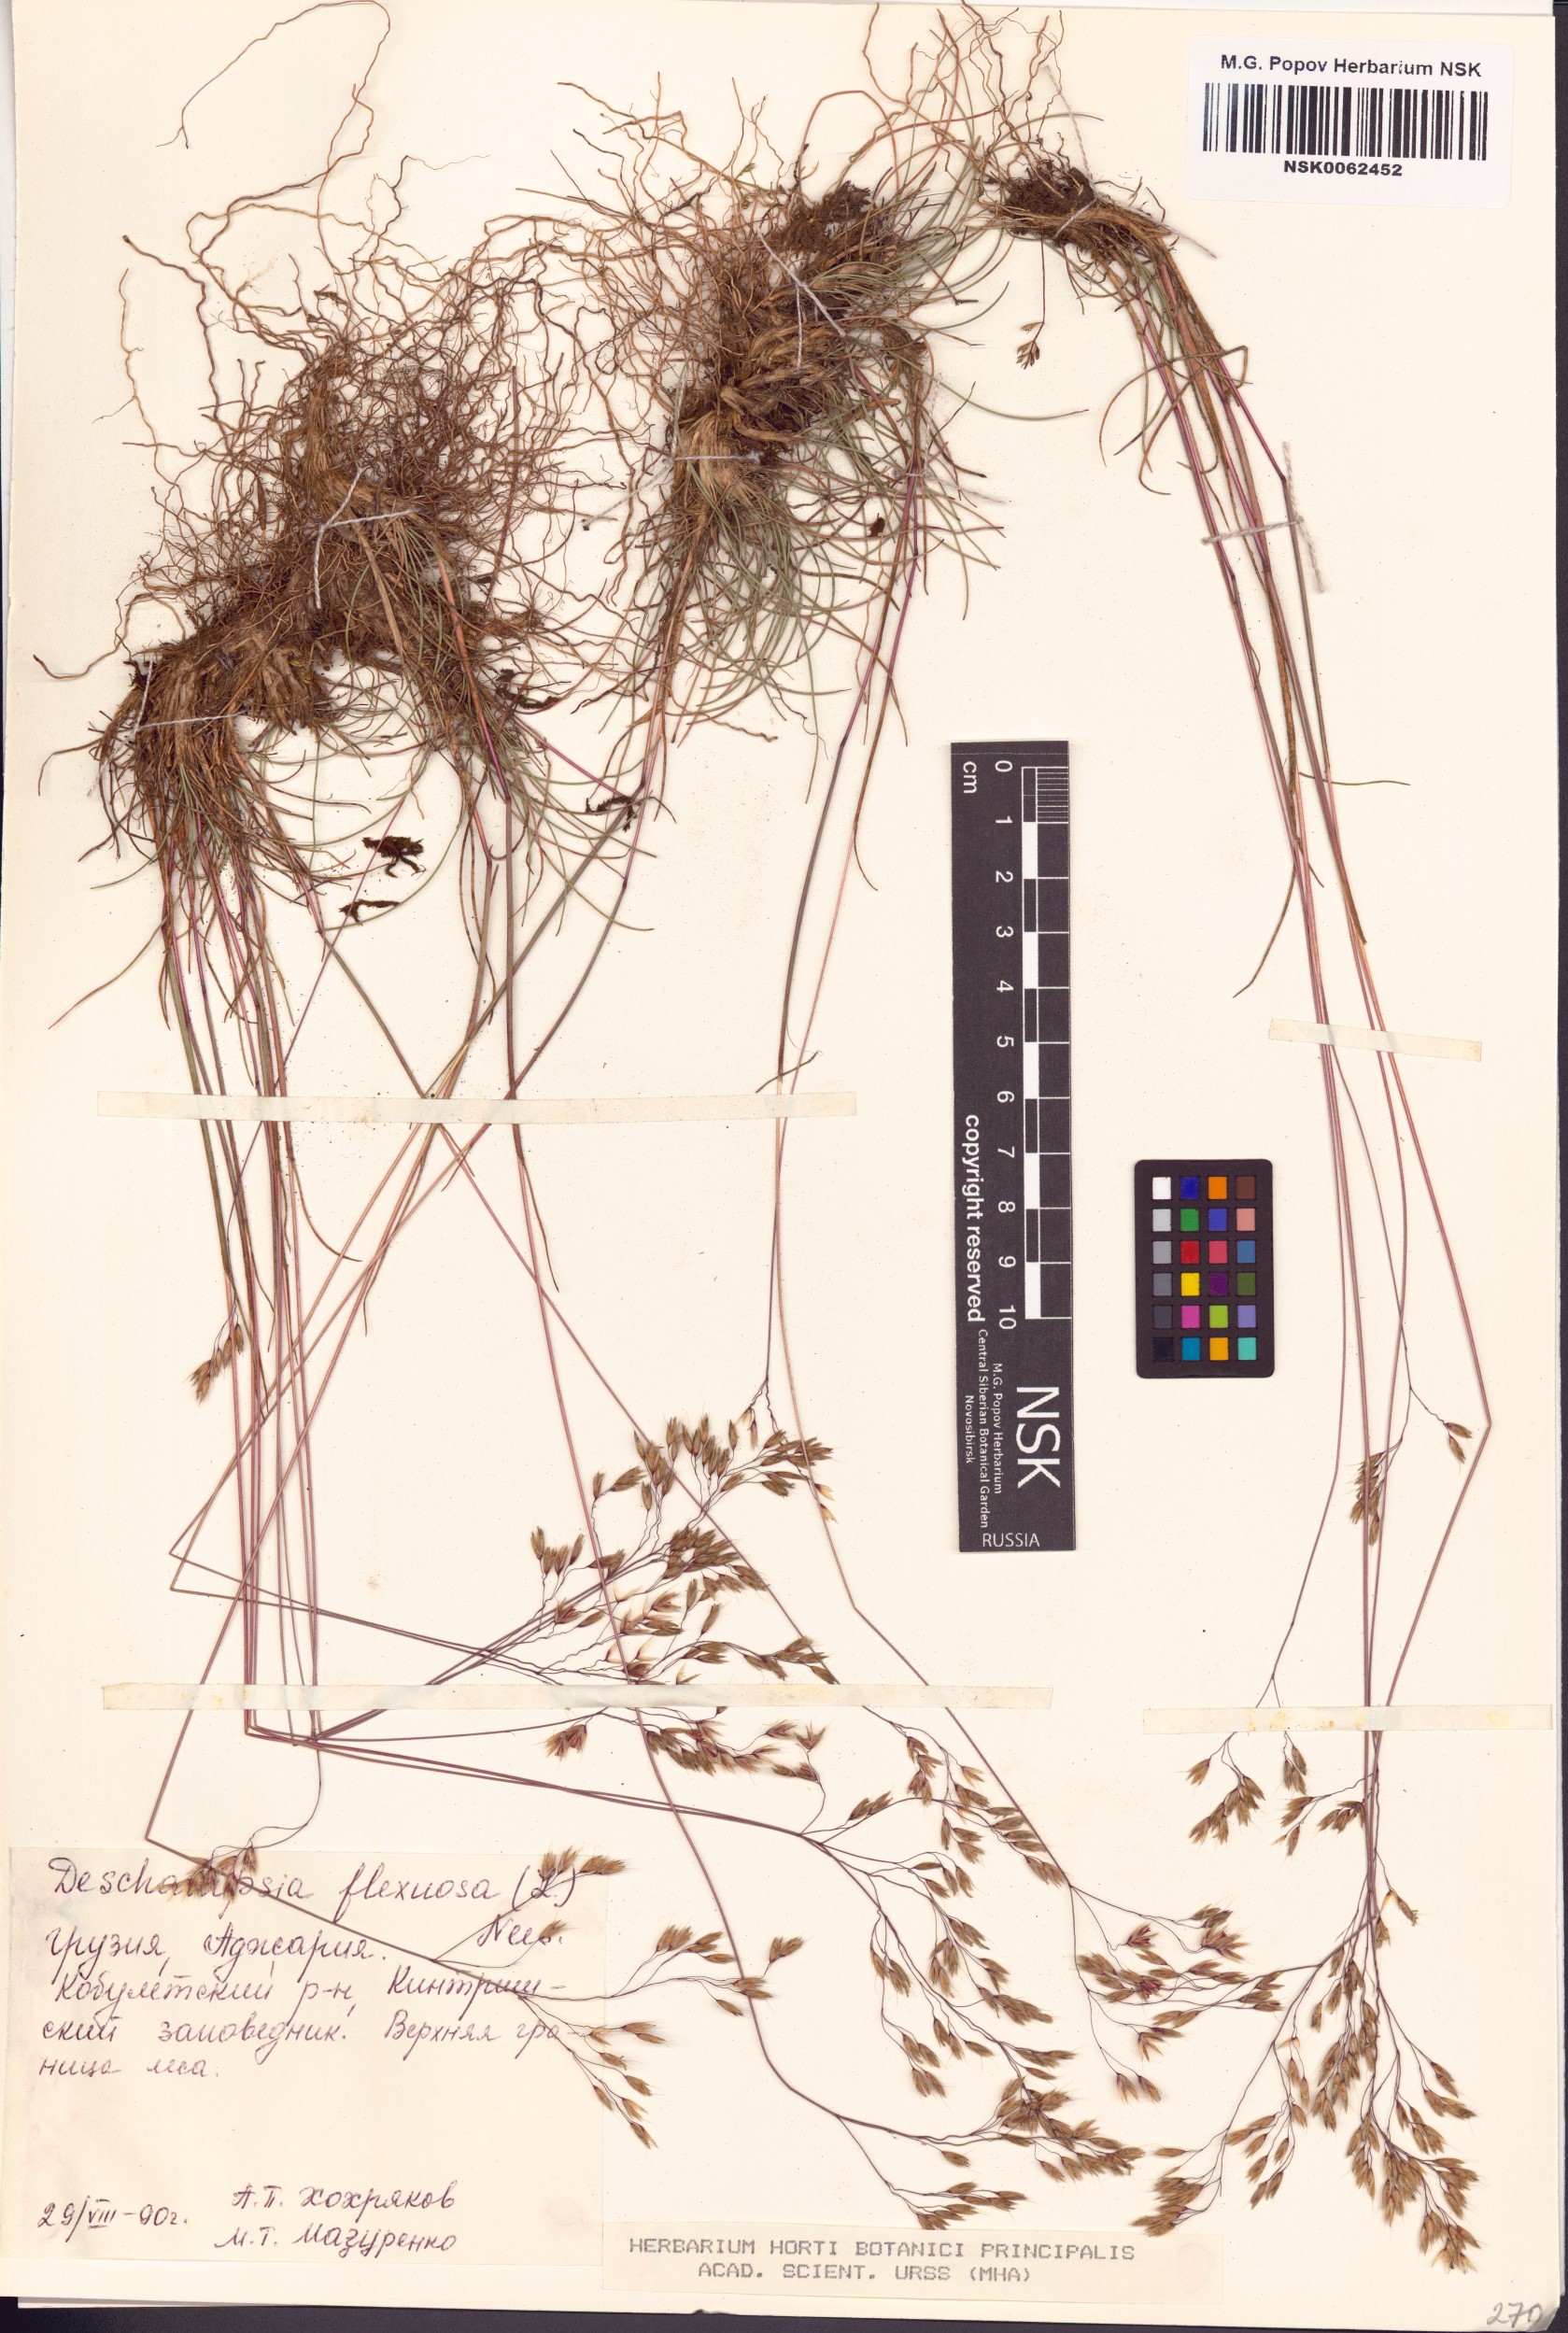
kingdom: Plantae
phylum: Tracheophyta
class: Liliopsida
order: Poales
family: Poaceae
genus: Avenella
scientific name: Avenella flexuosa
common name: Wavy hairgrass
